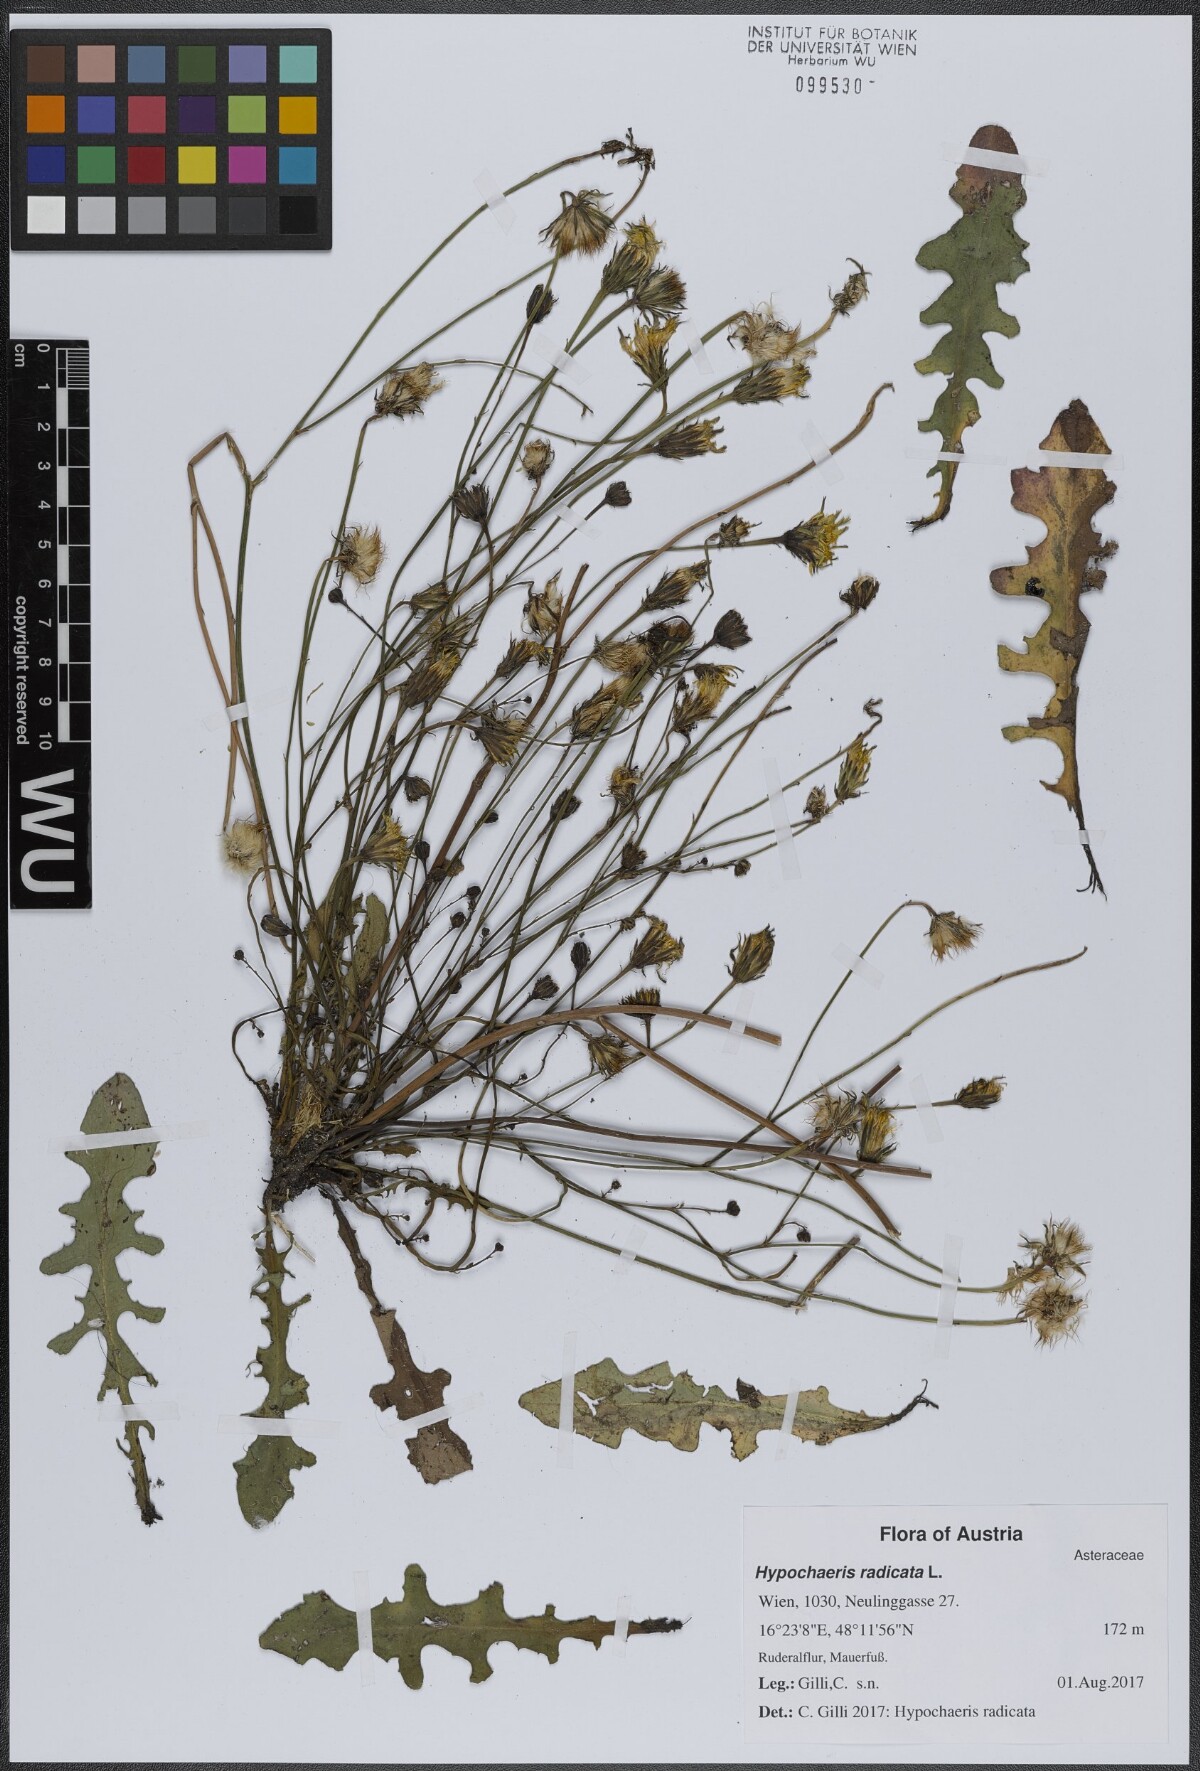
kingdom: Plantae
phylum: Tracheophyta
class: Magnoliopsida
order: Asterales
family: Asteraceae
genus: Hypochaeris
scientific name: Hypochaeris radicata
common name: Flatweed
